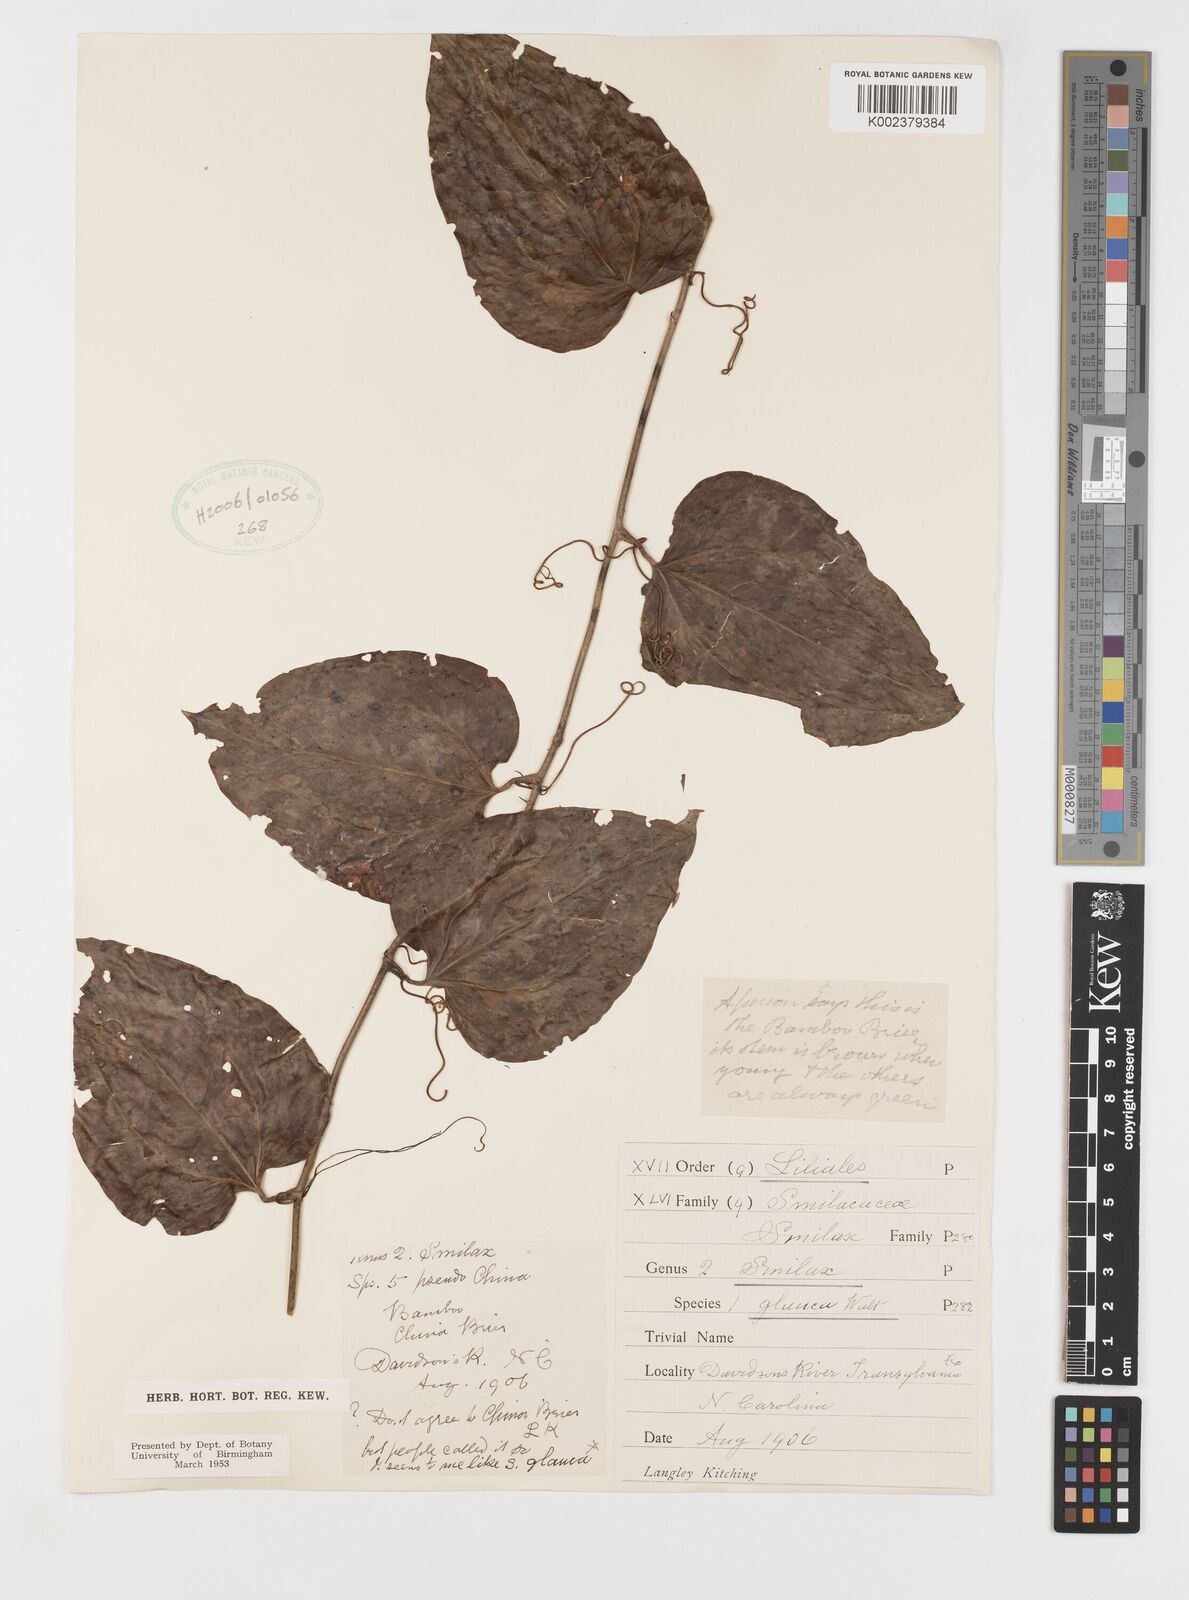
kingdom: Plantae
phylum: Tracheophyta
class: Liliopsida
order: Liliales
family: Smilacaceae
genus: Smilax
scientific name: Smilax glauca
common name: Cat greenbrier
